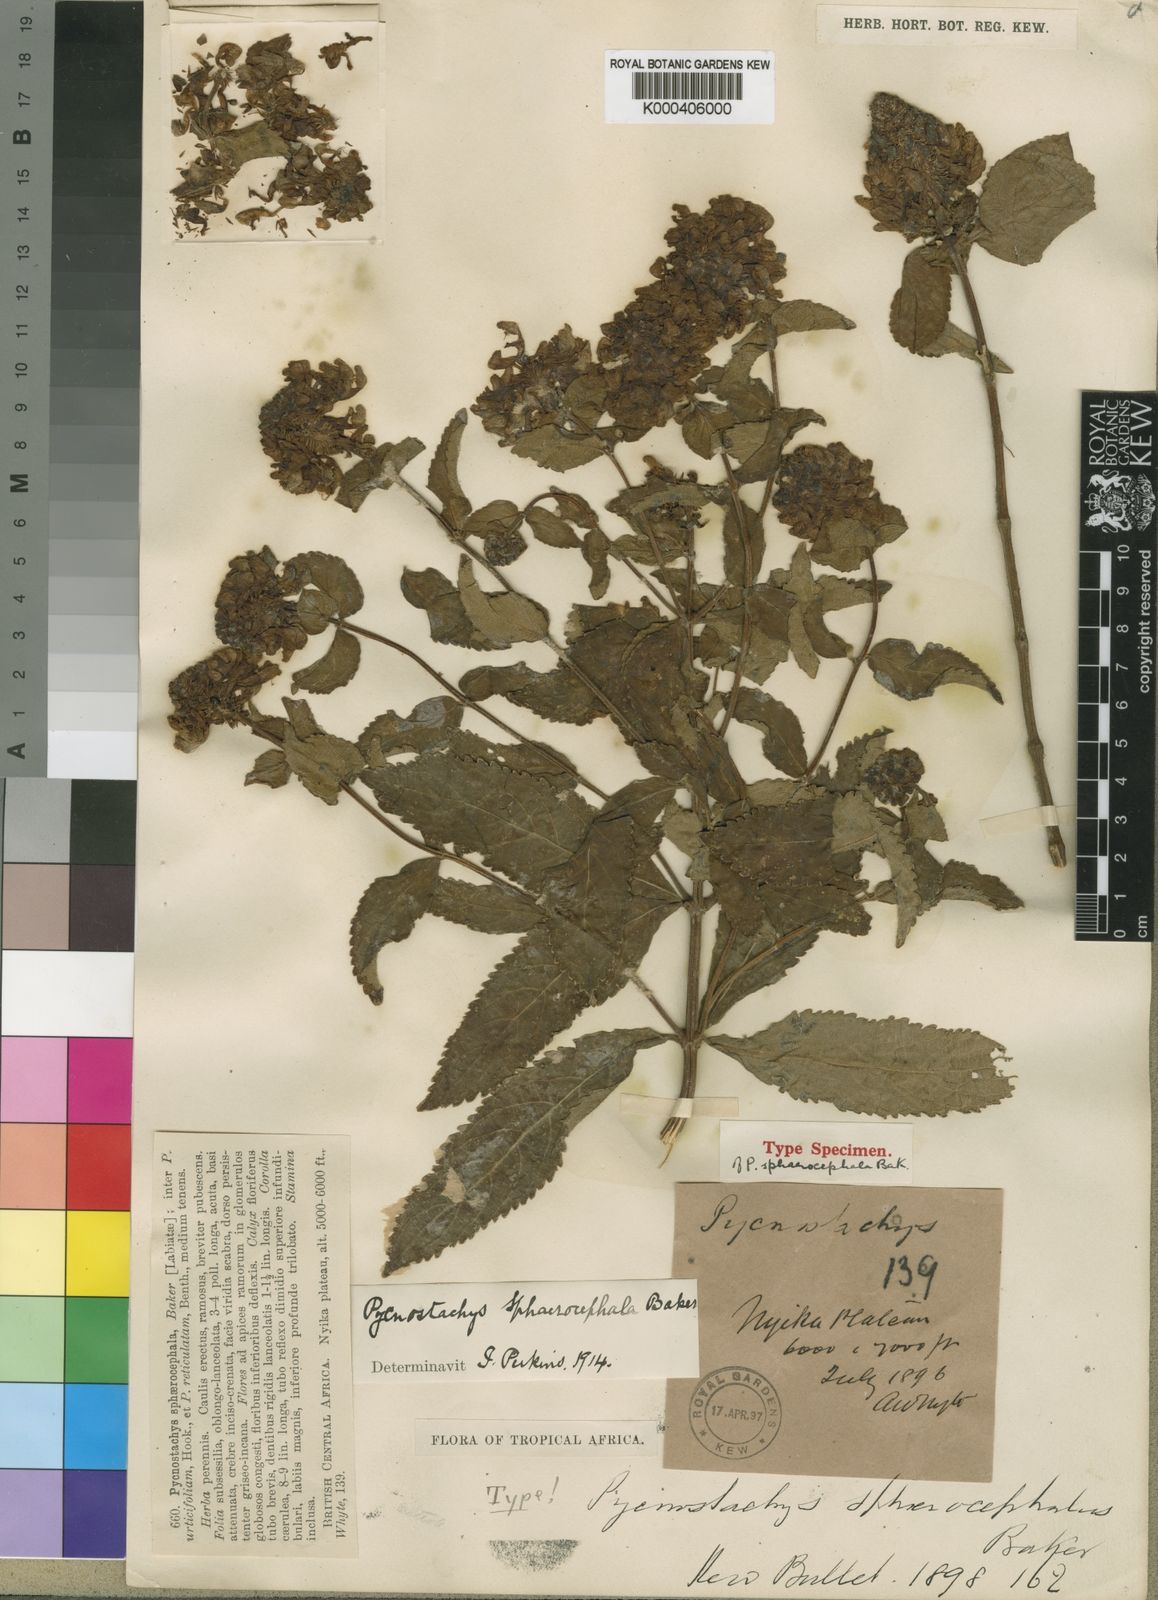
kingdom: Plantae
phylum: Tracheophyta
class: Magnoliopsida
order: Lamiales
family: Lamiaceae
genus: Coleus
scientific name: Coleus sphaerocephalus
